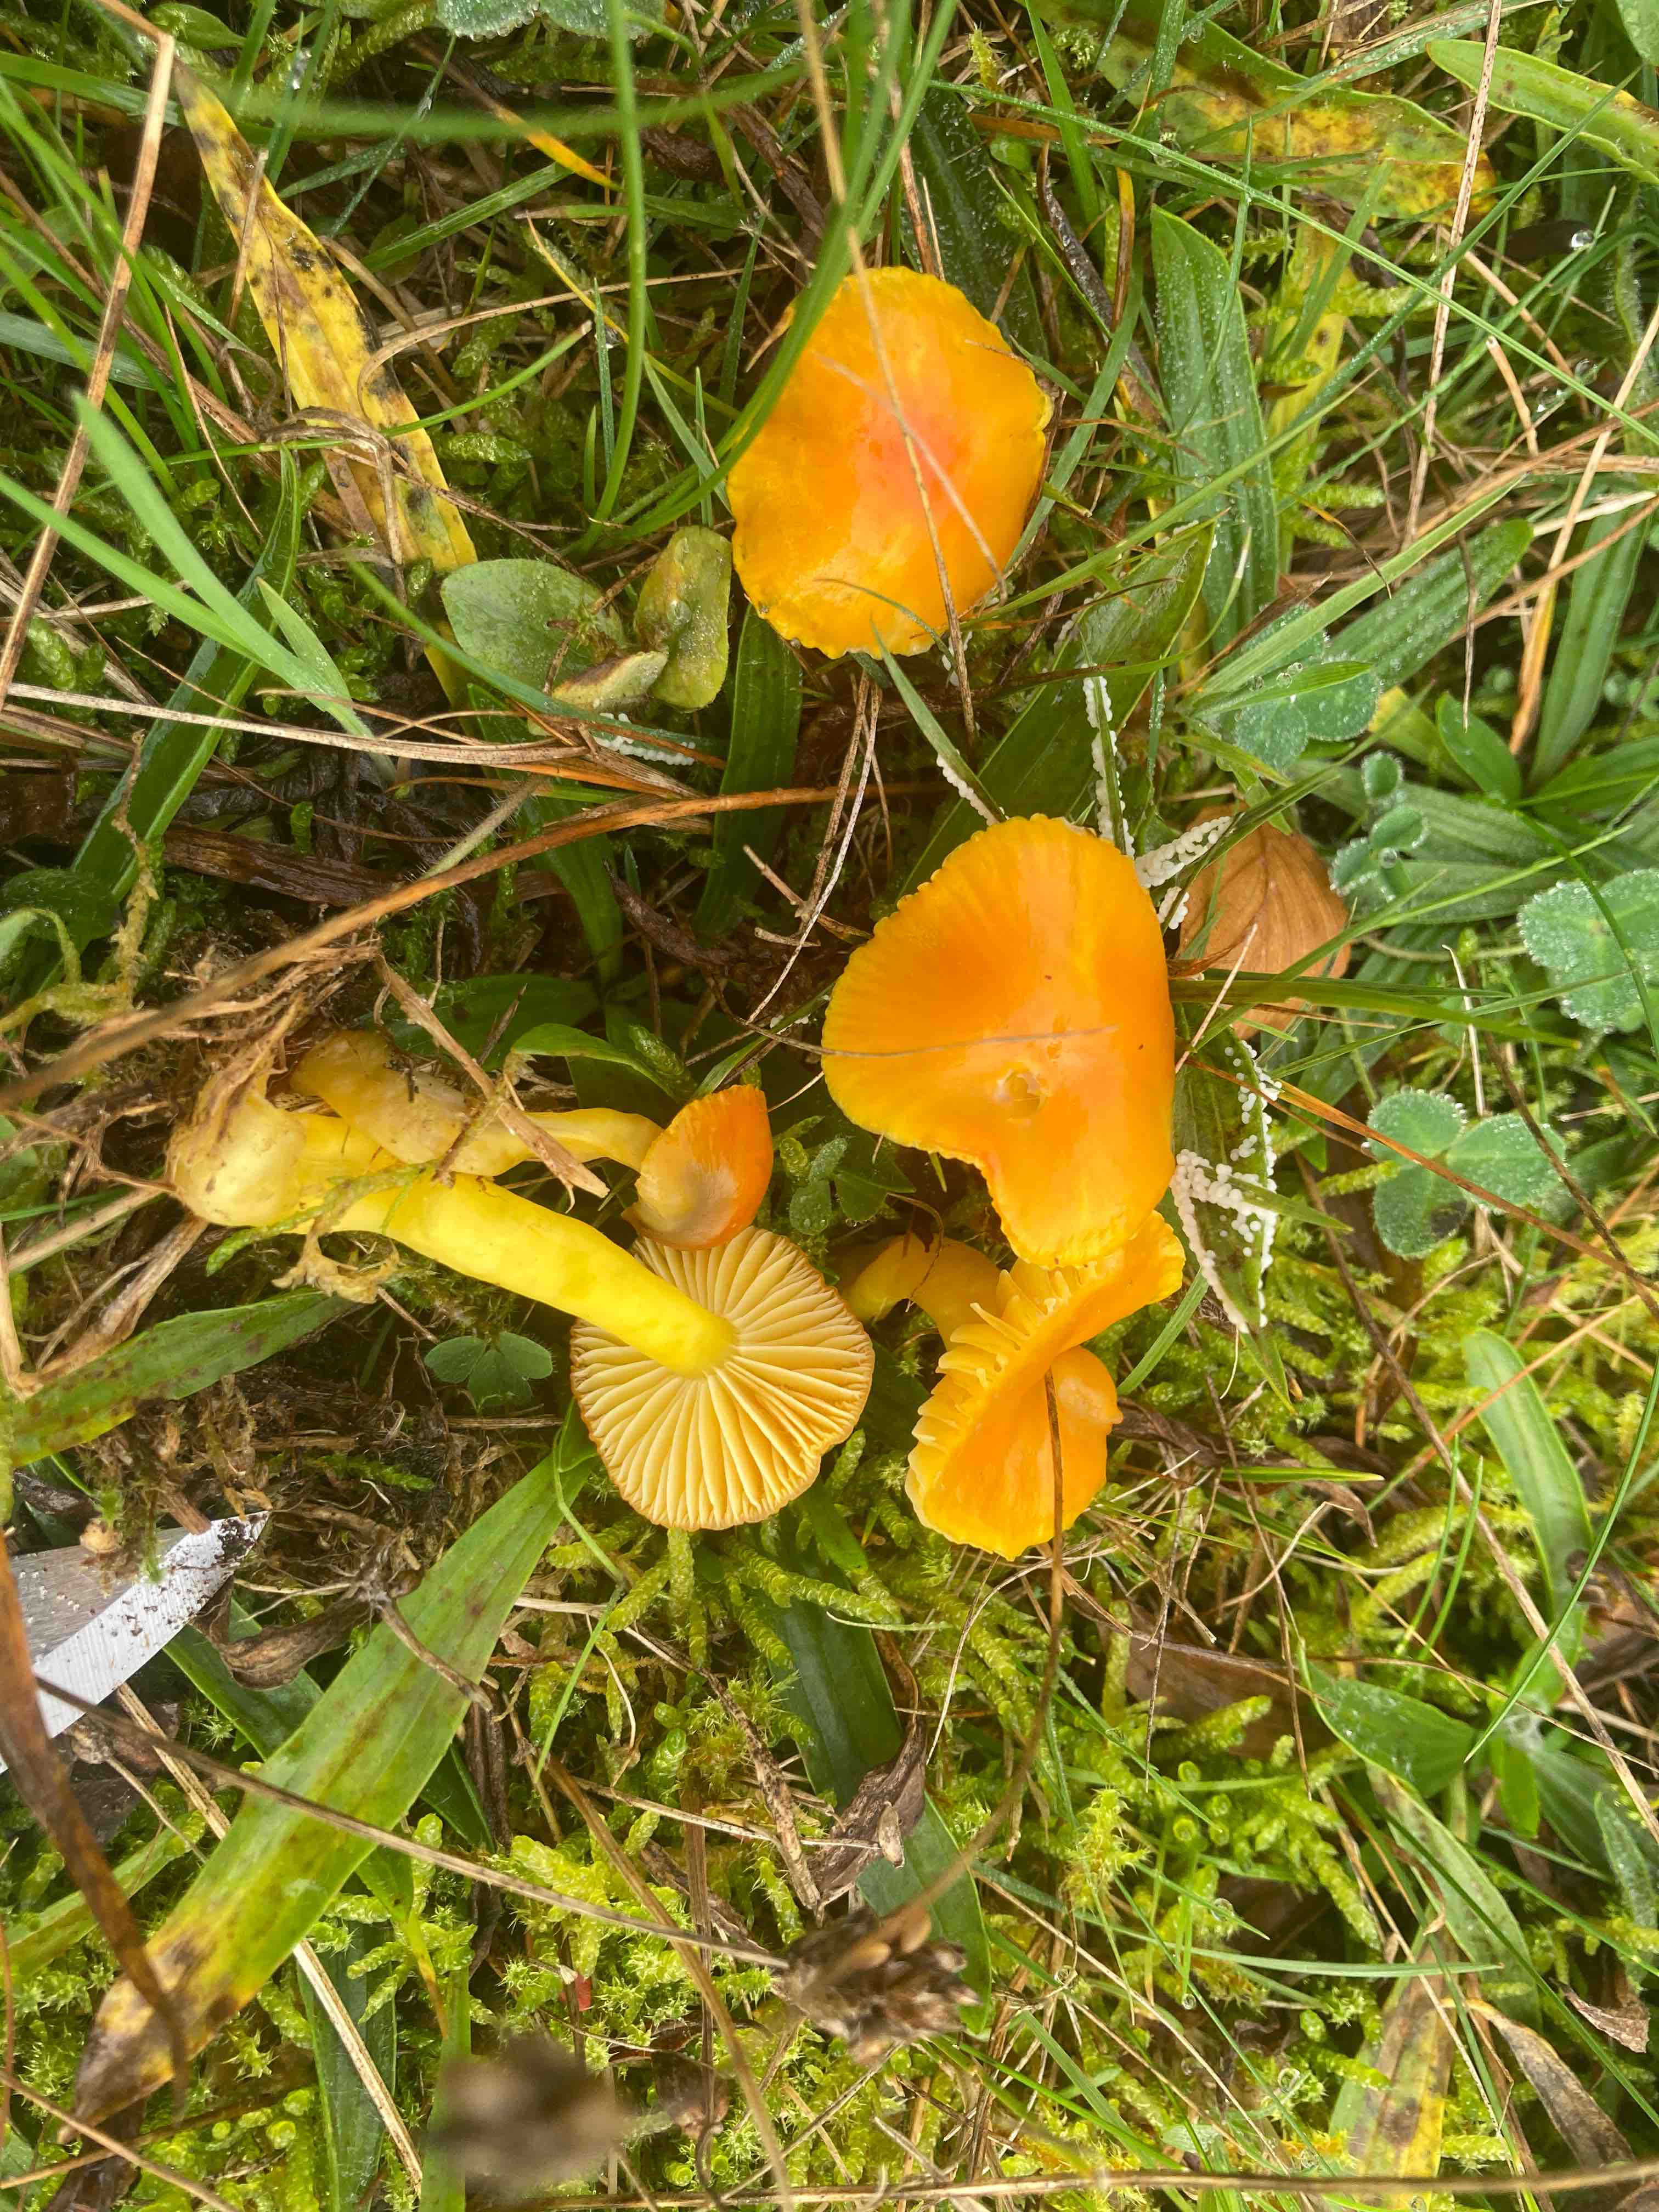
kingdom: Fungi
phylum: Basidiomycota
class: Agaricomycetes
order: Agaricales
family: Hygrophoraceae
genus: Hygrocybe
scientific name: Hygrocybe ceracea
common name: voksgul vokshat
